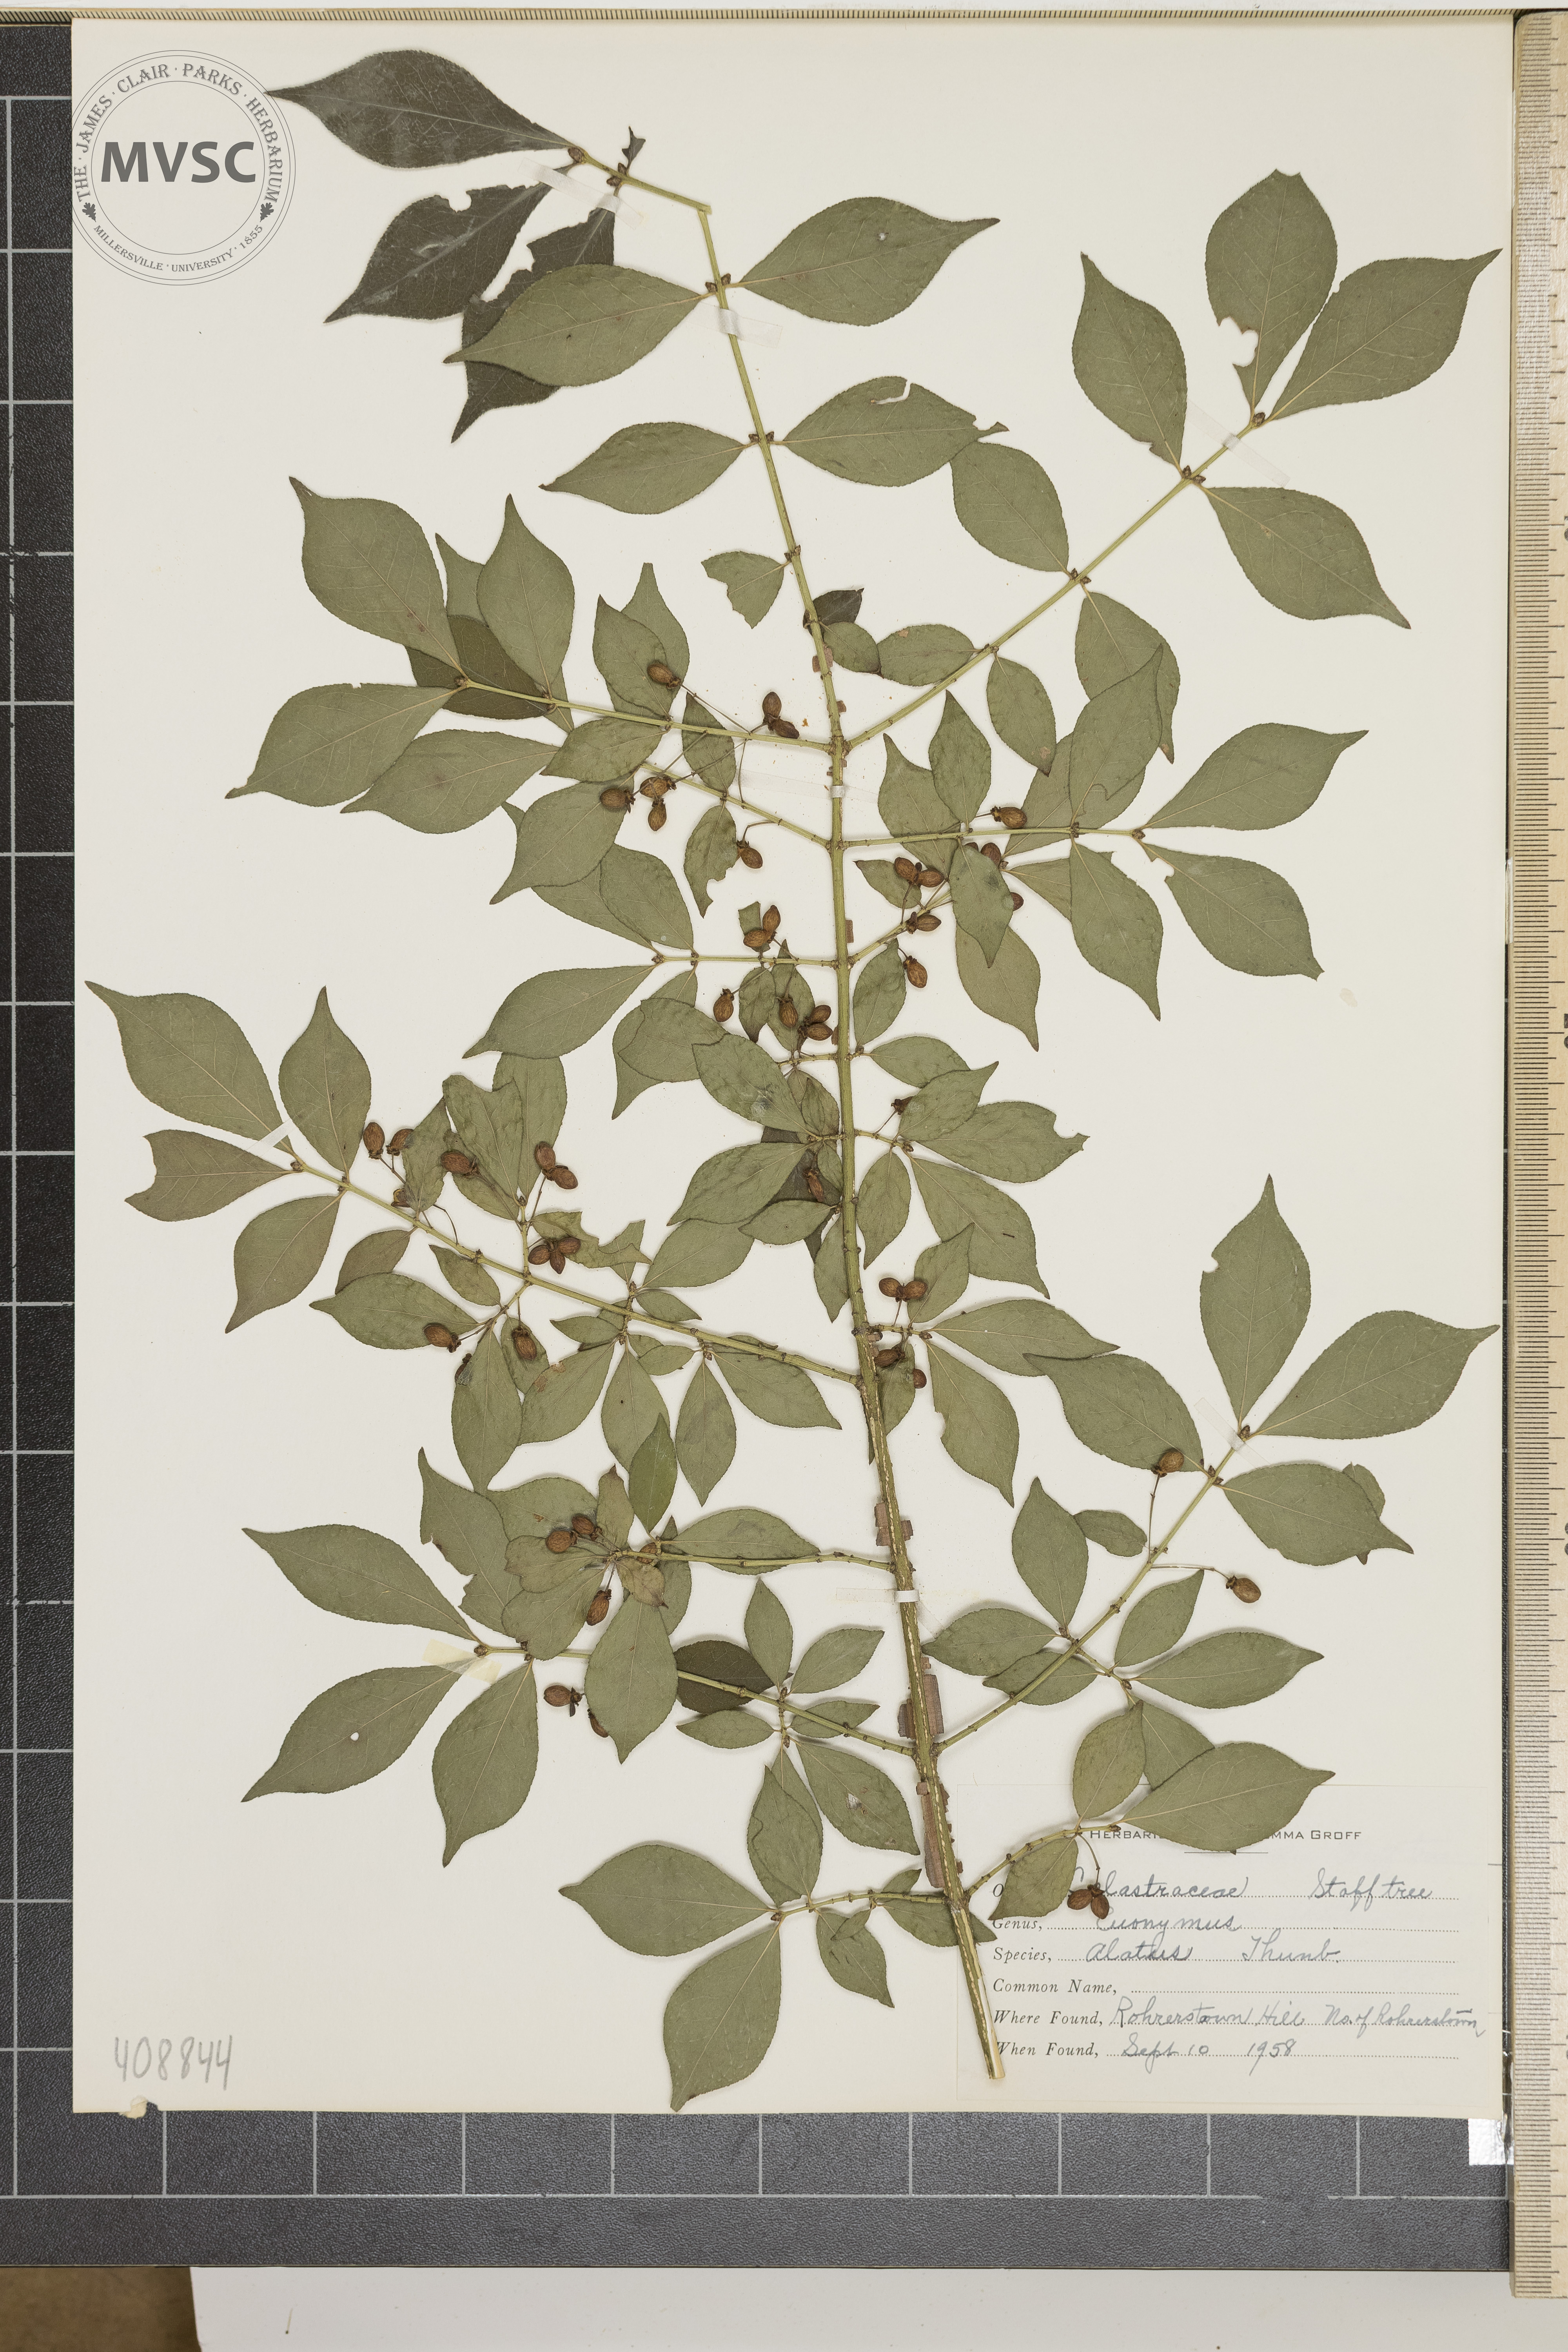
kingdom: Plantae
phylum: Tracheophyta
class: Magnoliopsida
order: Celastrales
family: Celastraceae
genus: Euonymus
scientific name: Euonymus alatus
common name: Winged euonymus
